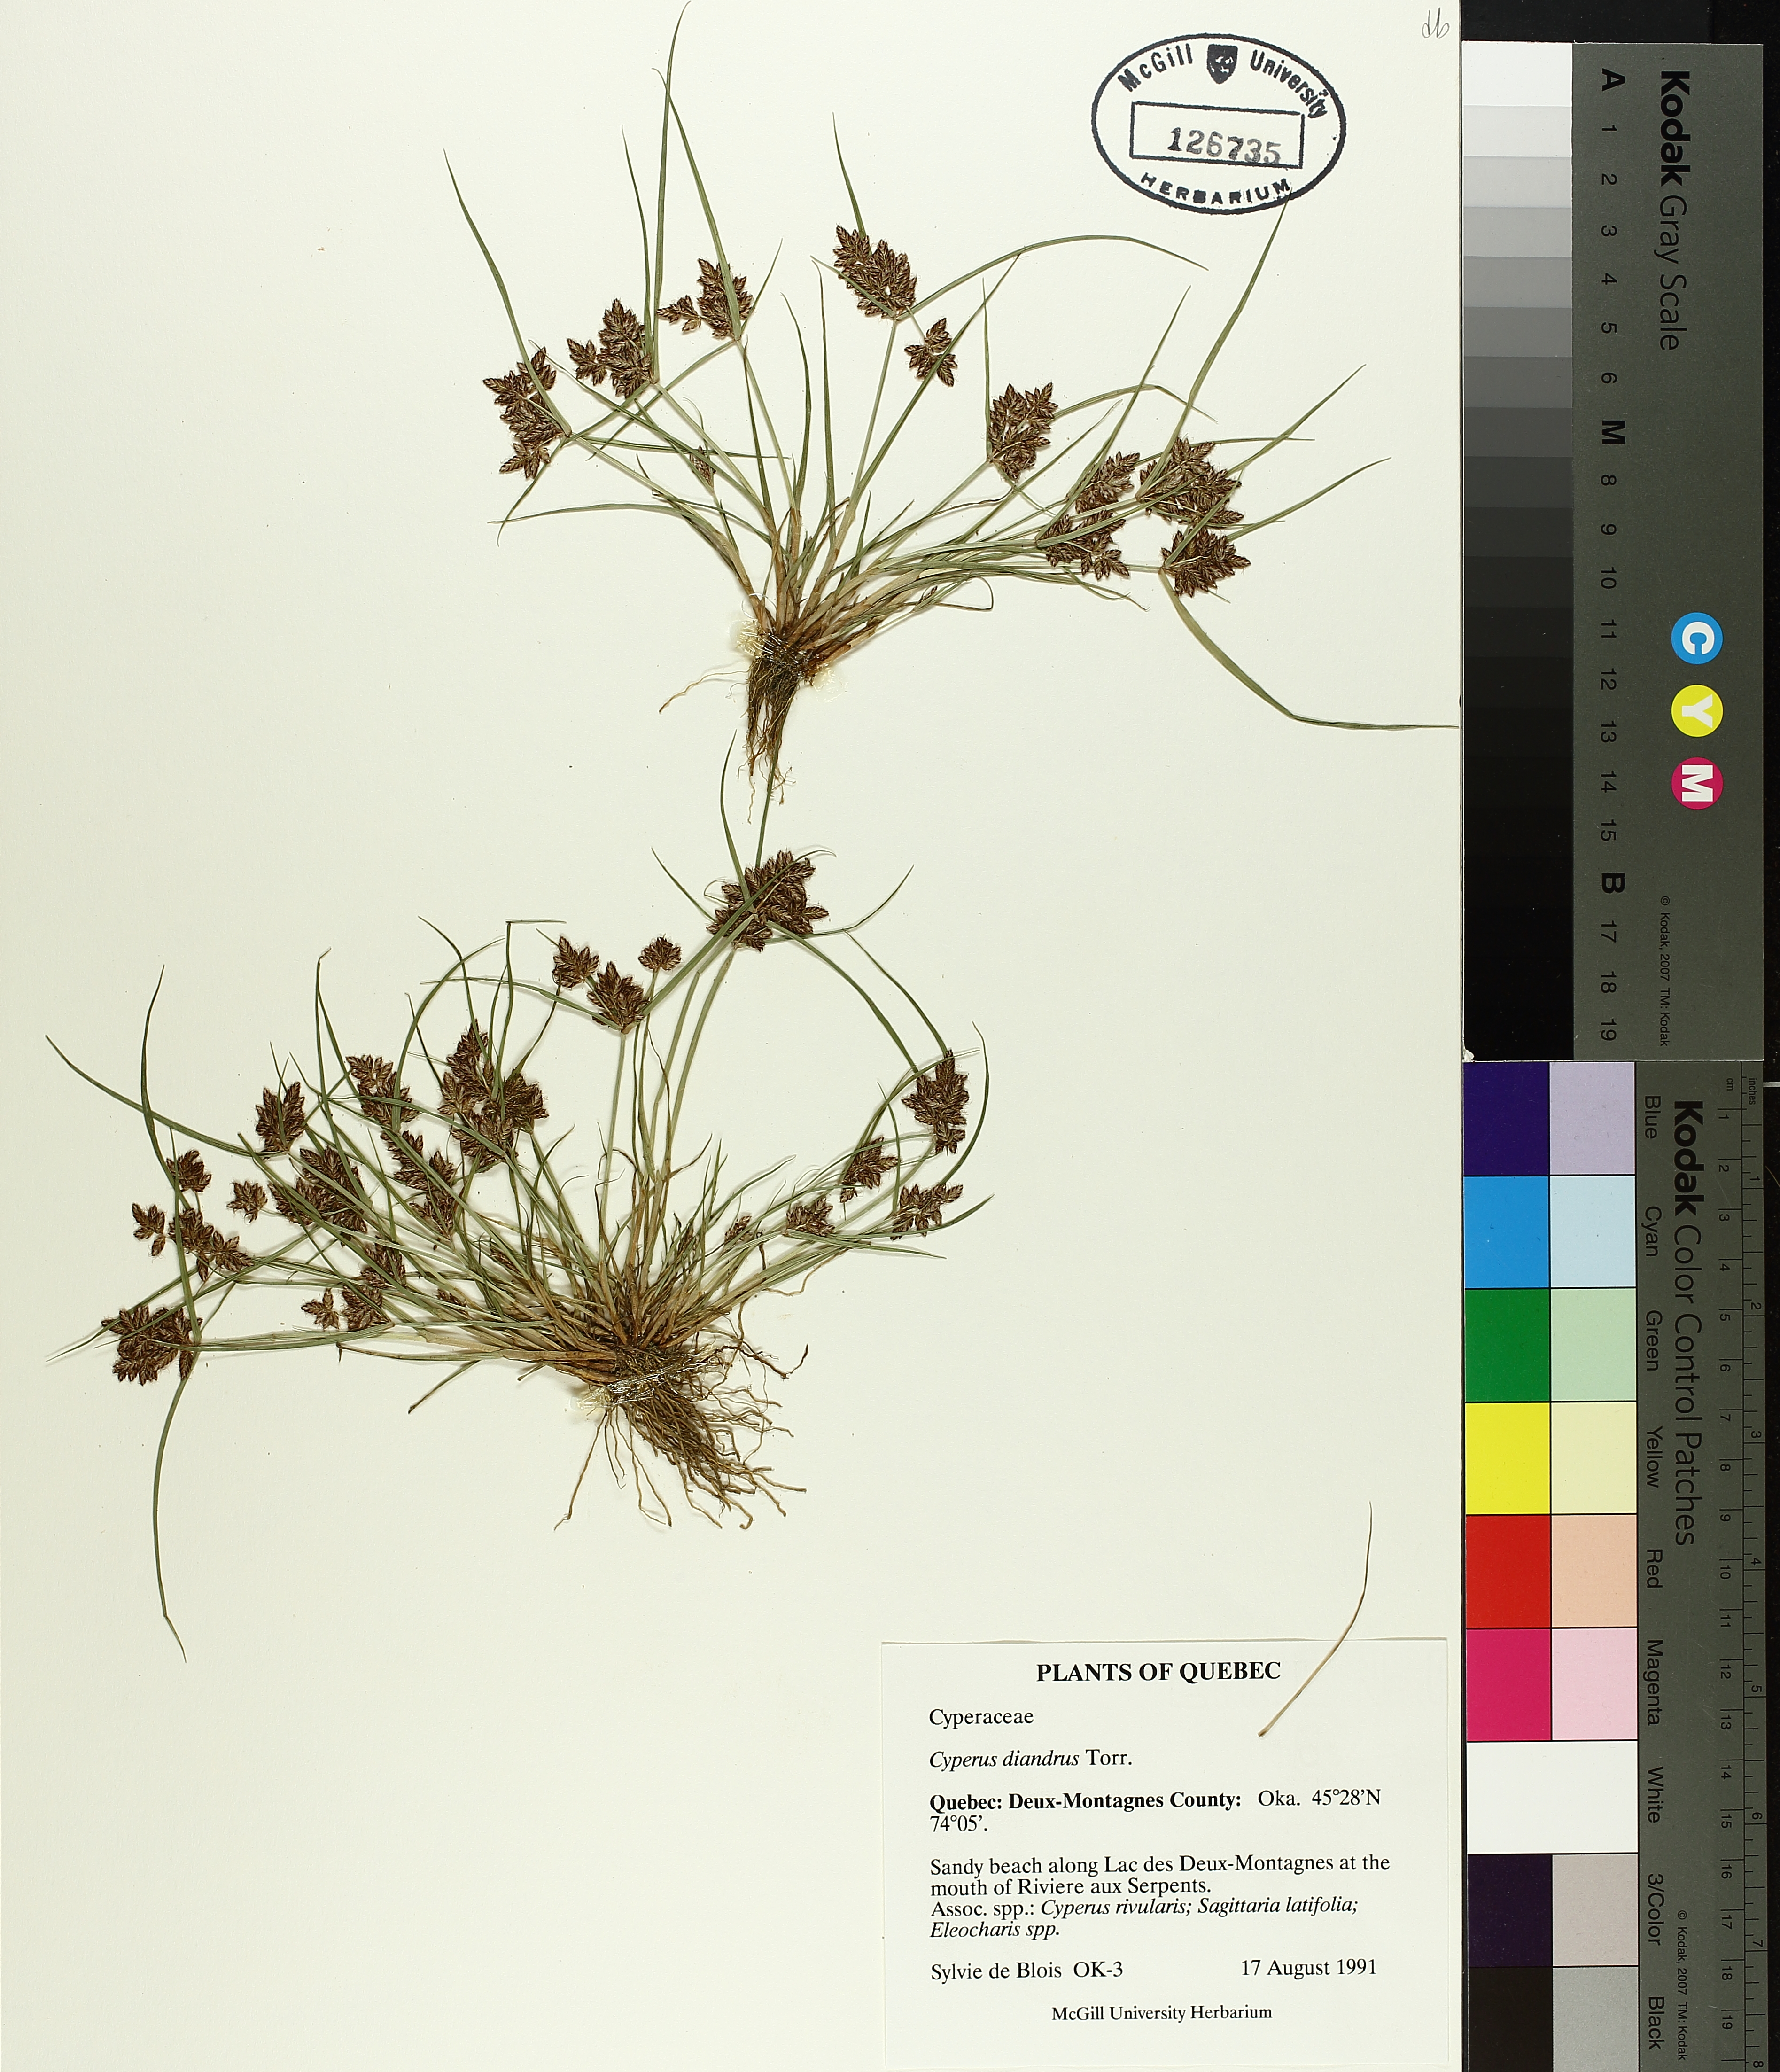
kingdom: Plantae
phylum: Tracheophyta
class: Liliopsida
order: Poales
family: Cyperaceae
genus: Cyperus
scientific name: Cyperus diandrus
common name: Low cyperus
